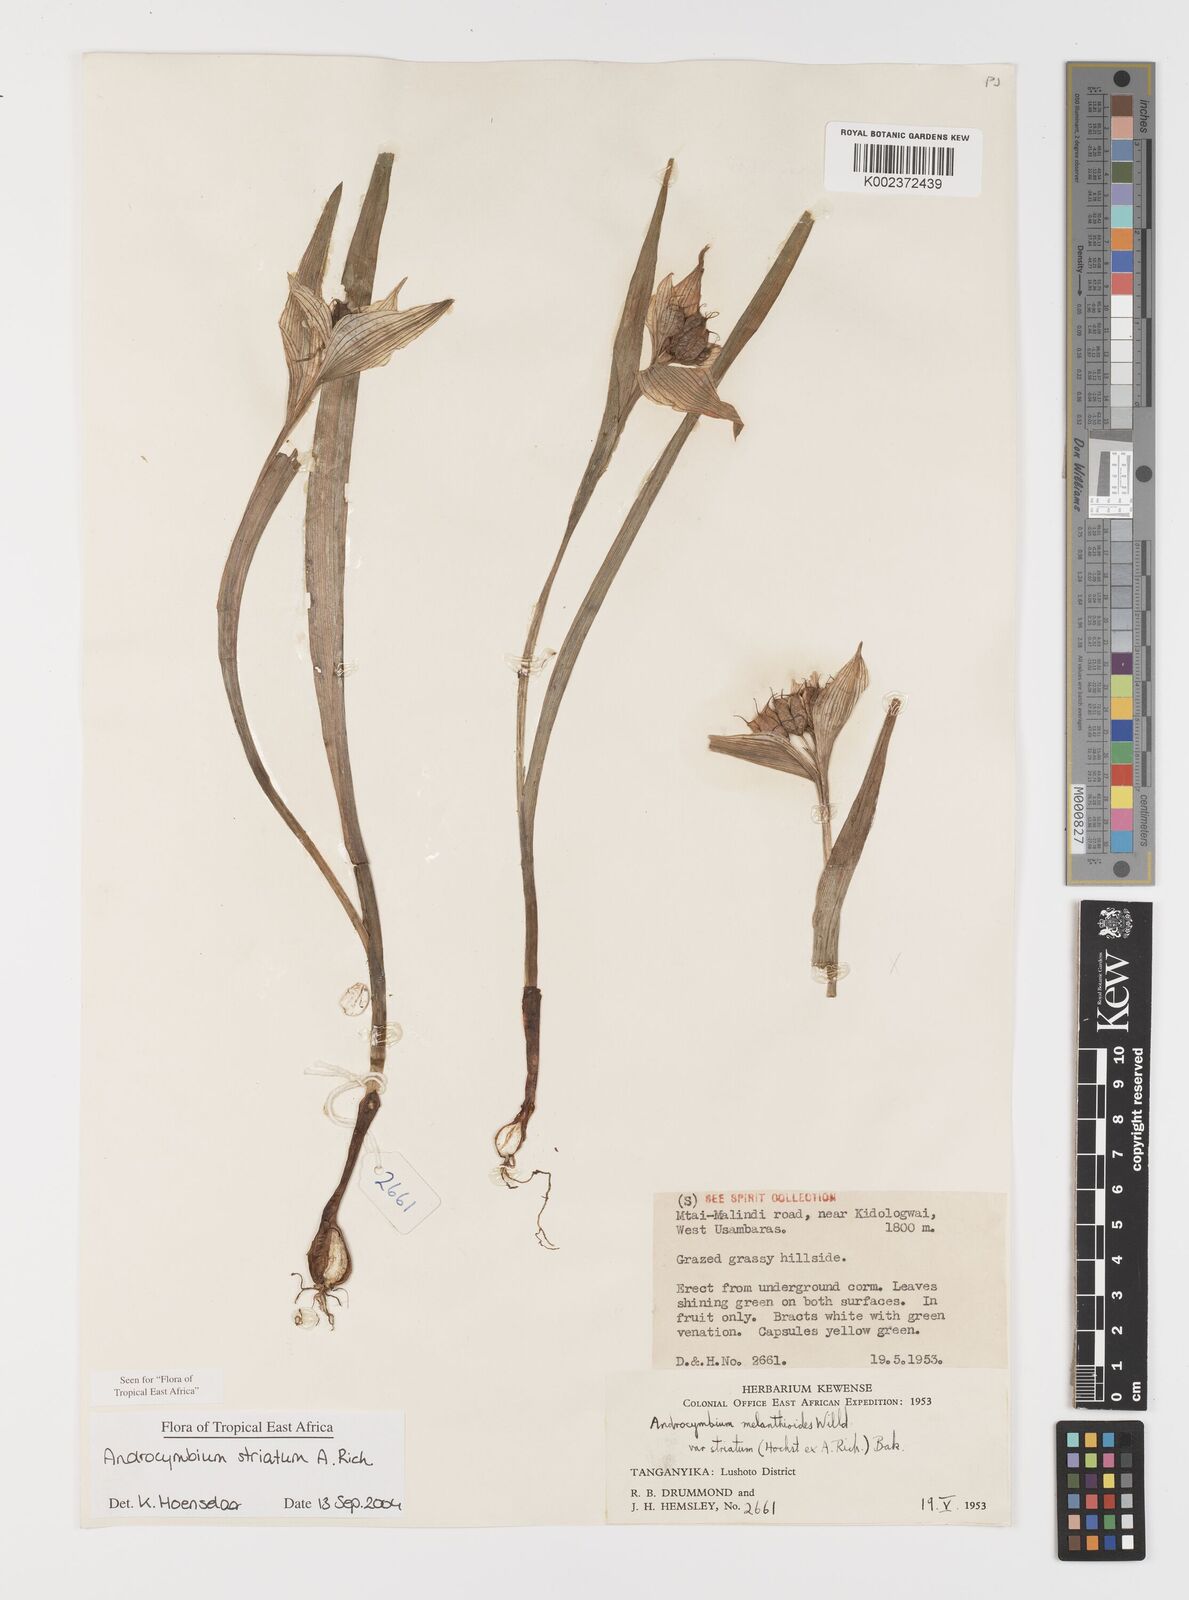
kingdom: Plantae
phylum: Tracheophyta
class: Liliopsida
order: Liliales
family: Colchicaceae
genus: Colchicum
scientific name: Colchicum striatum
